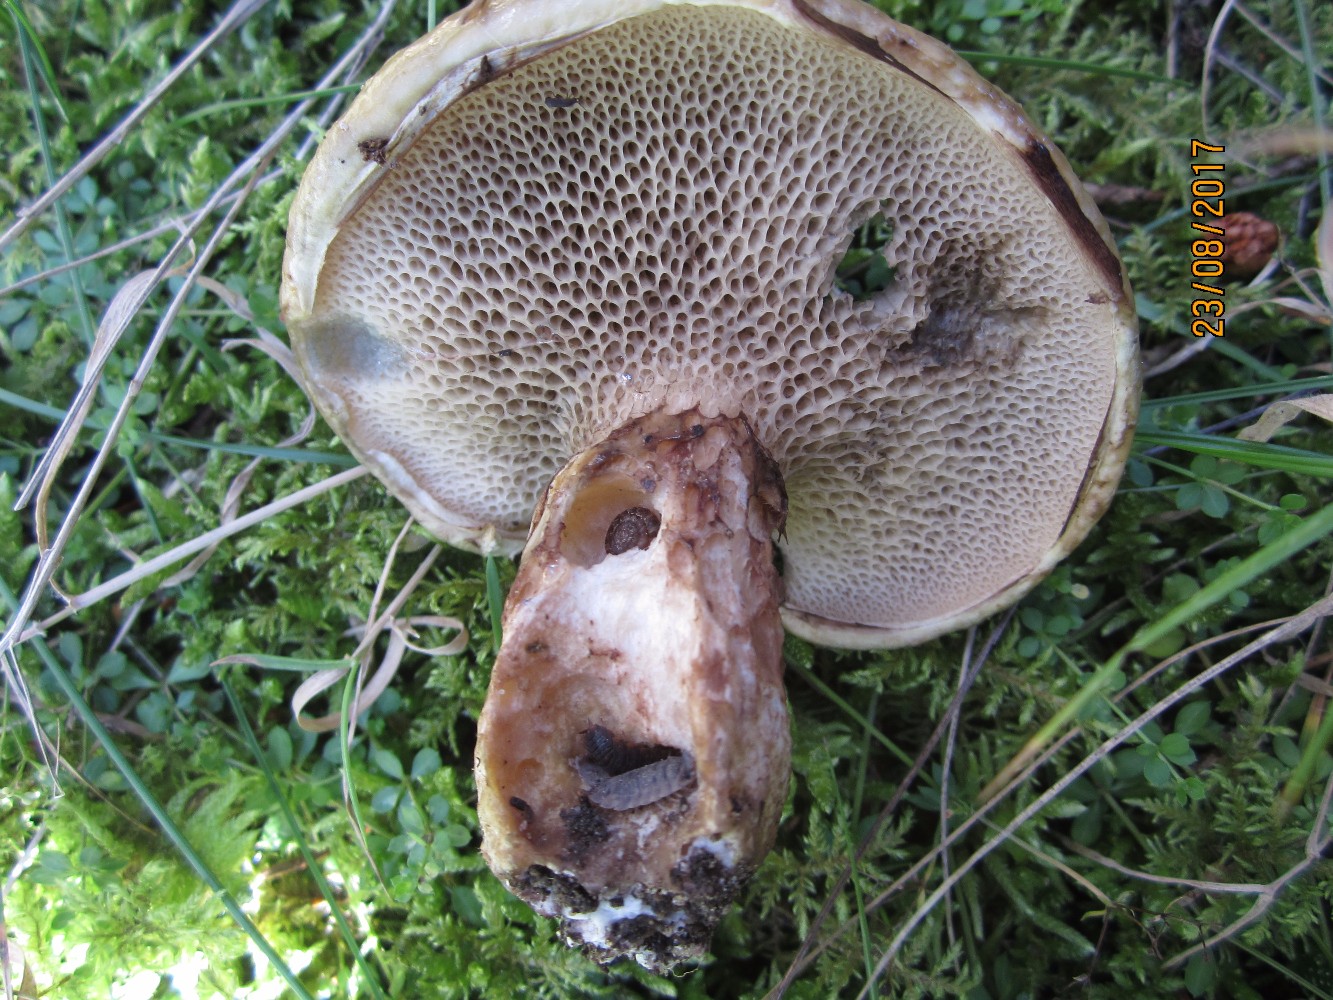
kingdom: Fungi
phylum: Basidiomycota
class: Agaricomycetes
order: Boletales
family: Suillaceae
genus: Suillus
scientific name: Suillus viscidus
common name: olivengrå slimrørhat
